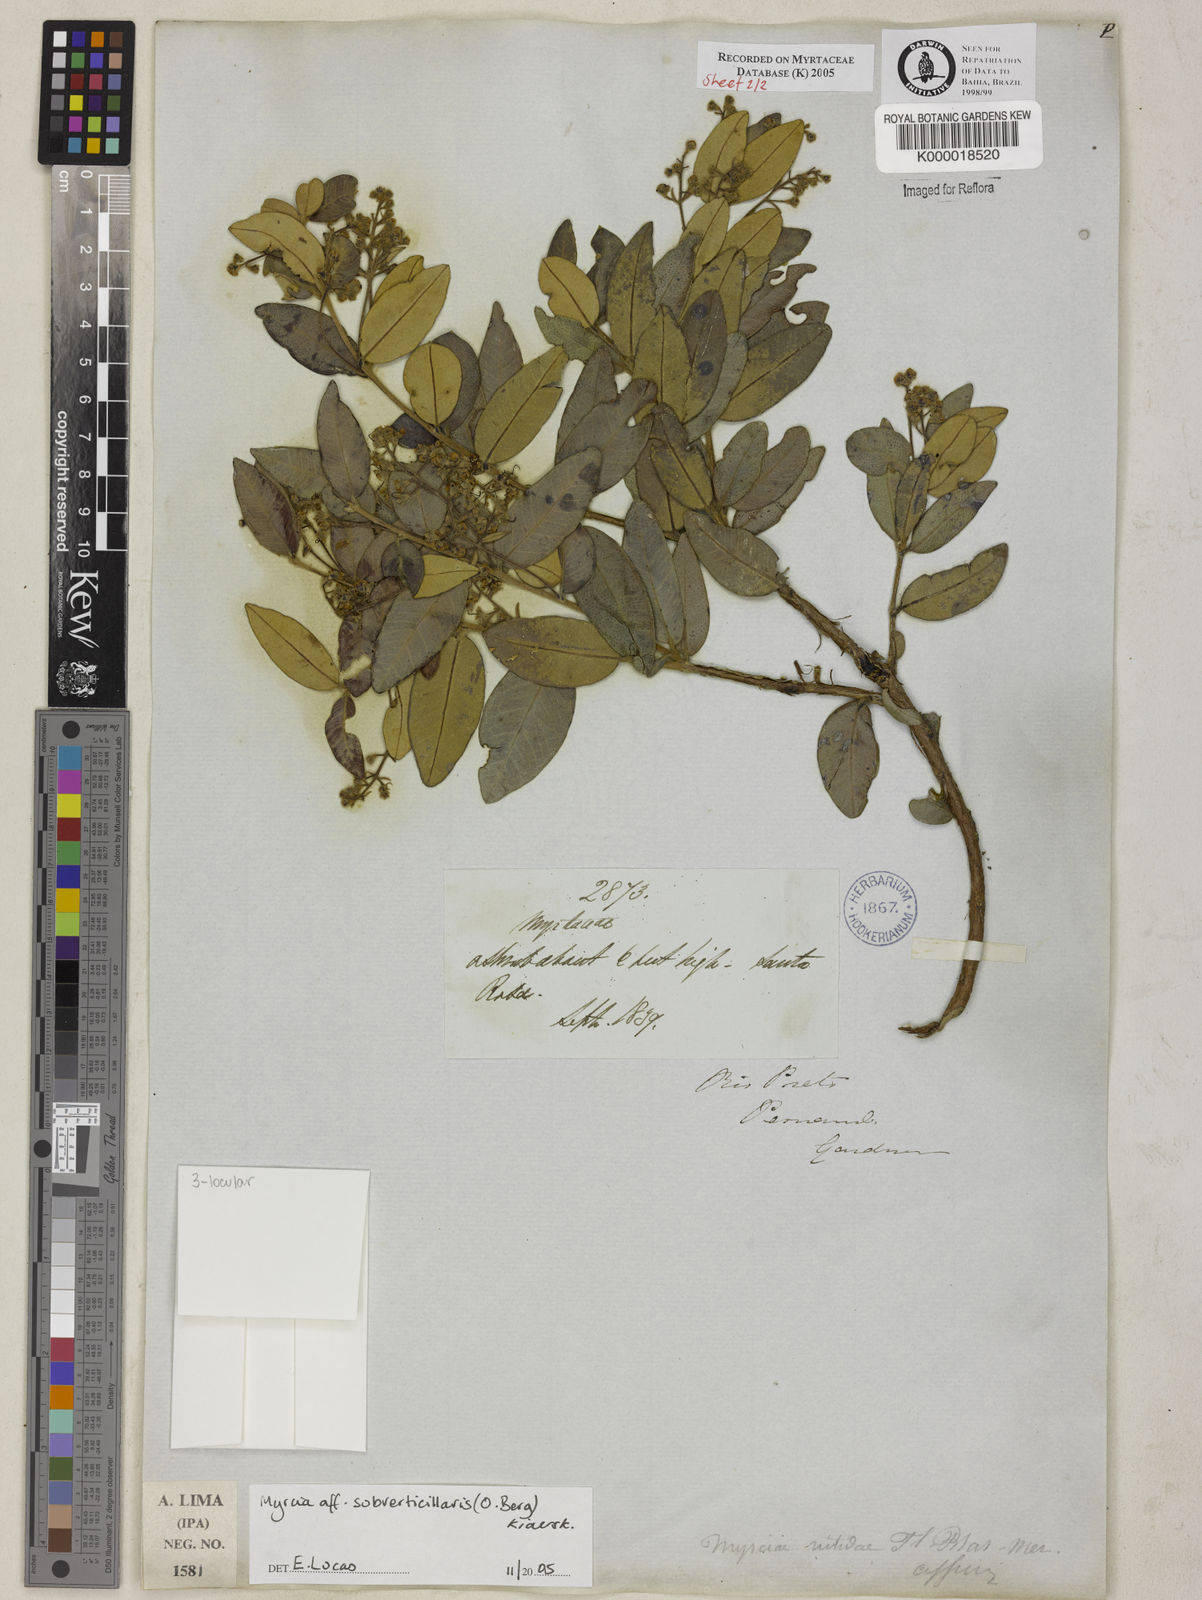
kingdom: Plantae
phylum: Tracheophyta
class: Magnoliopsida
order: Myrtales
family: Myrtaceae
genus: Myrcia
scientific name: Myrcia
